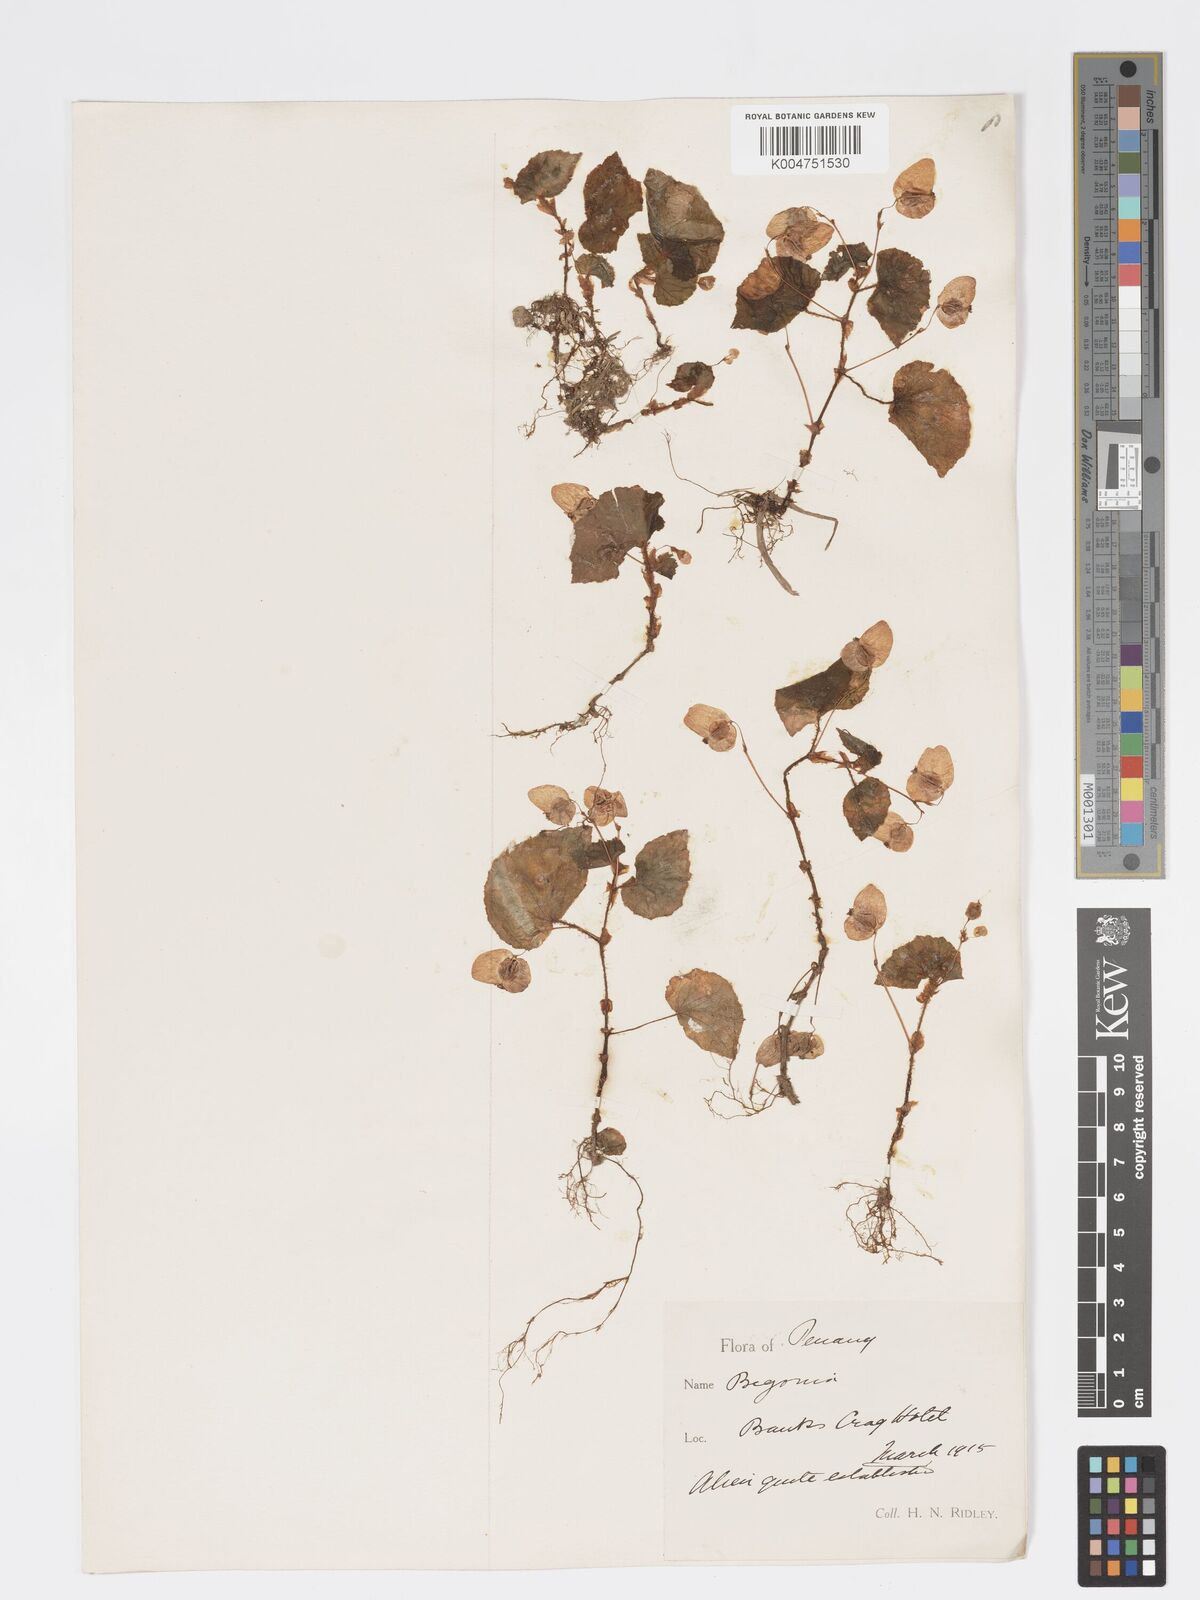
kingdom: Plantae
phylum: Tracheophyta
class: Magnoliopsida
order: Cucurbitales
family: Begoniaceae
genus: Begonia
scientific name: Begonia
